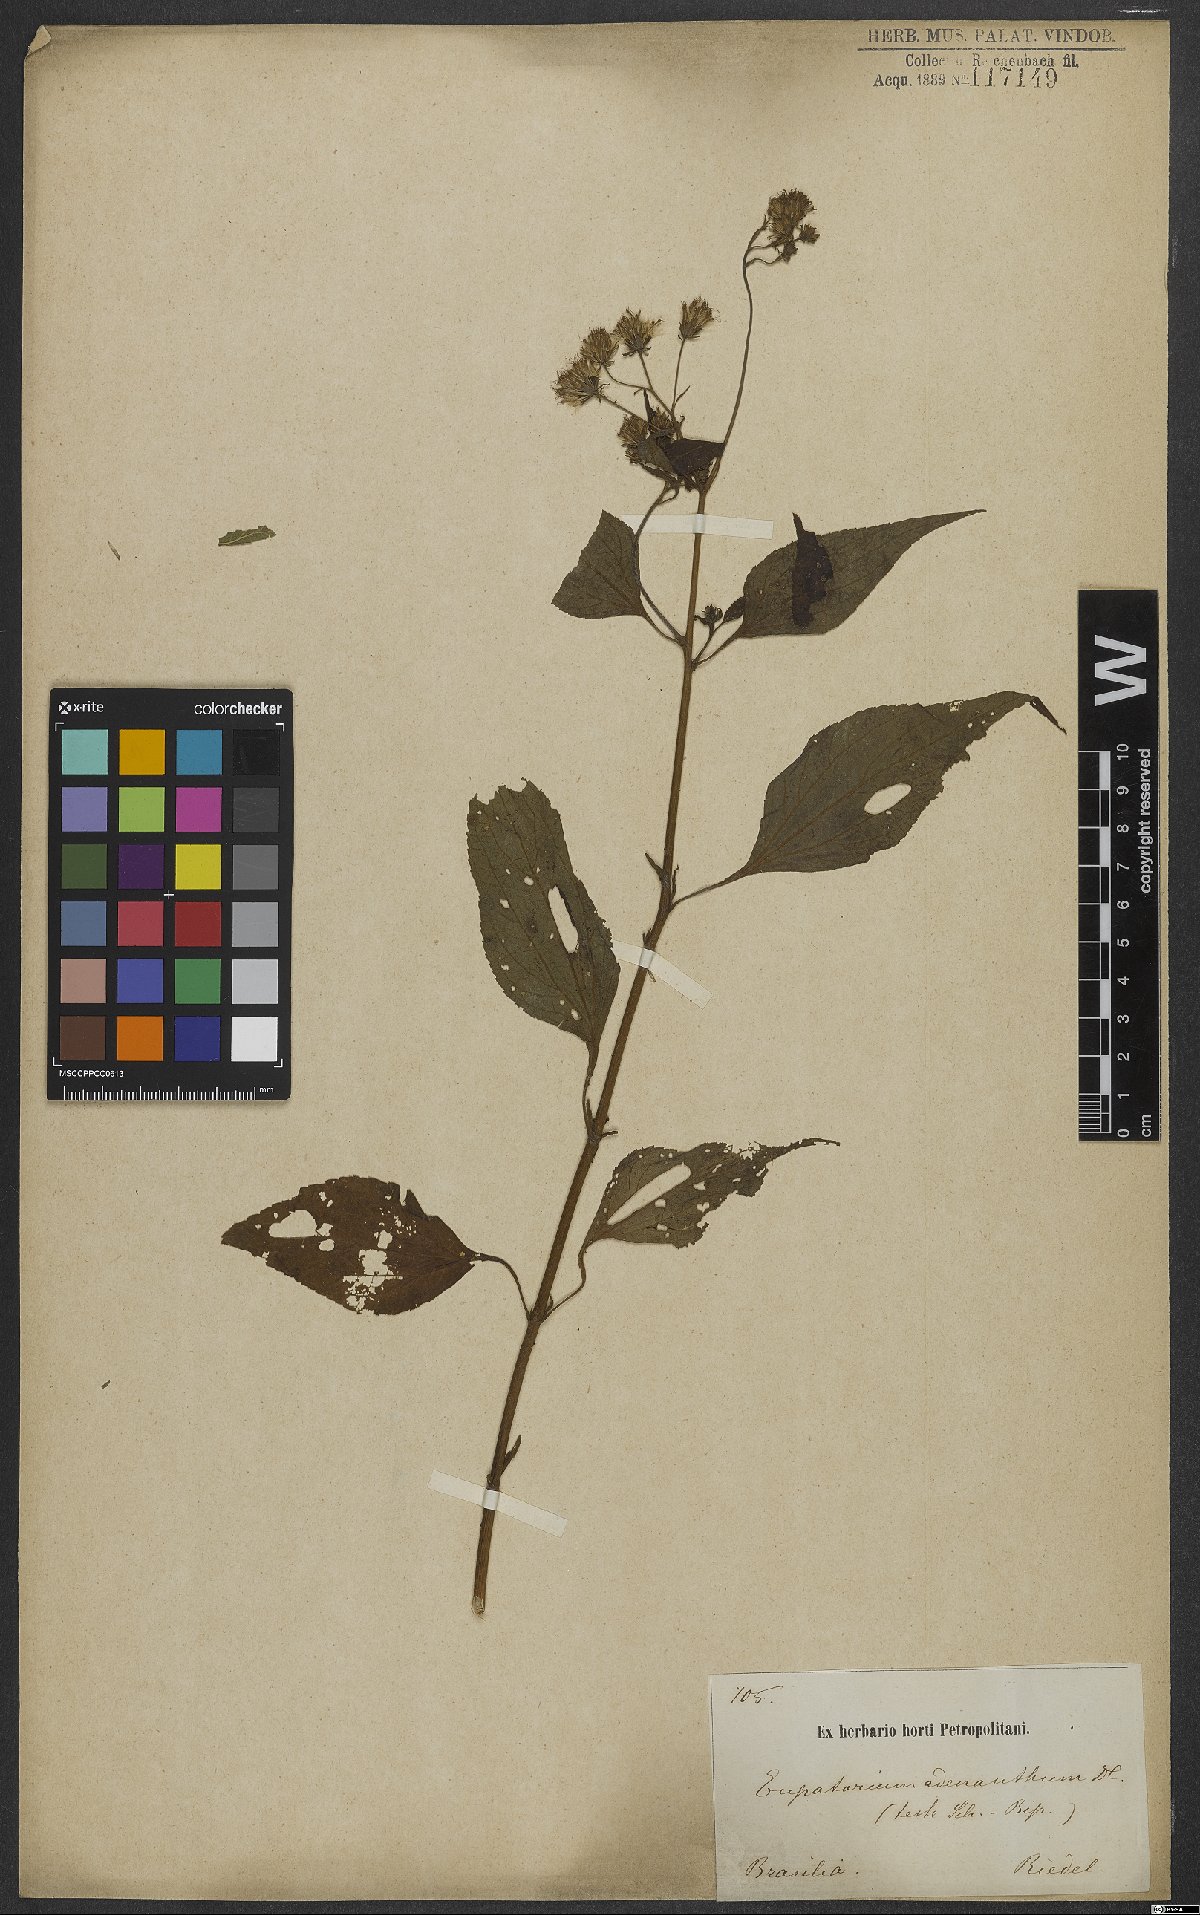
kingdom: Plantae
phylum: Tracheophyta
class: Magnoliopsida
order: Asterales
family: Asteraceae
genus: Trichogoniopsis
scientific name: Trichogoniopsis adenantha
